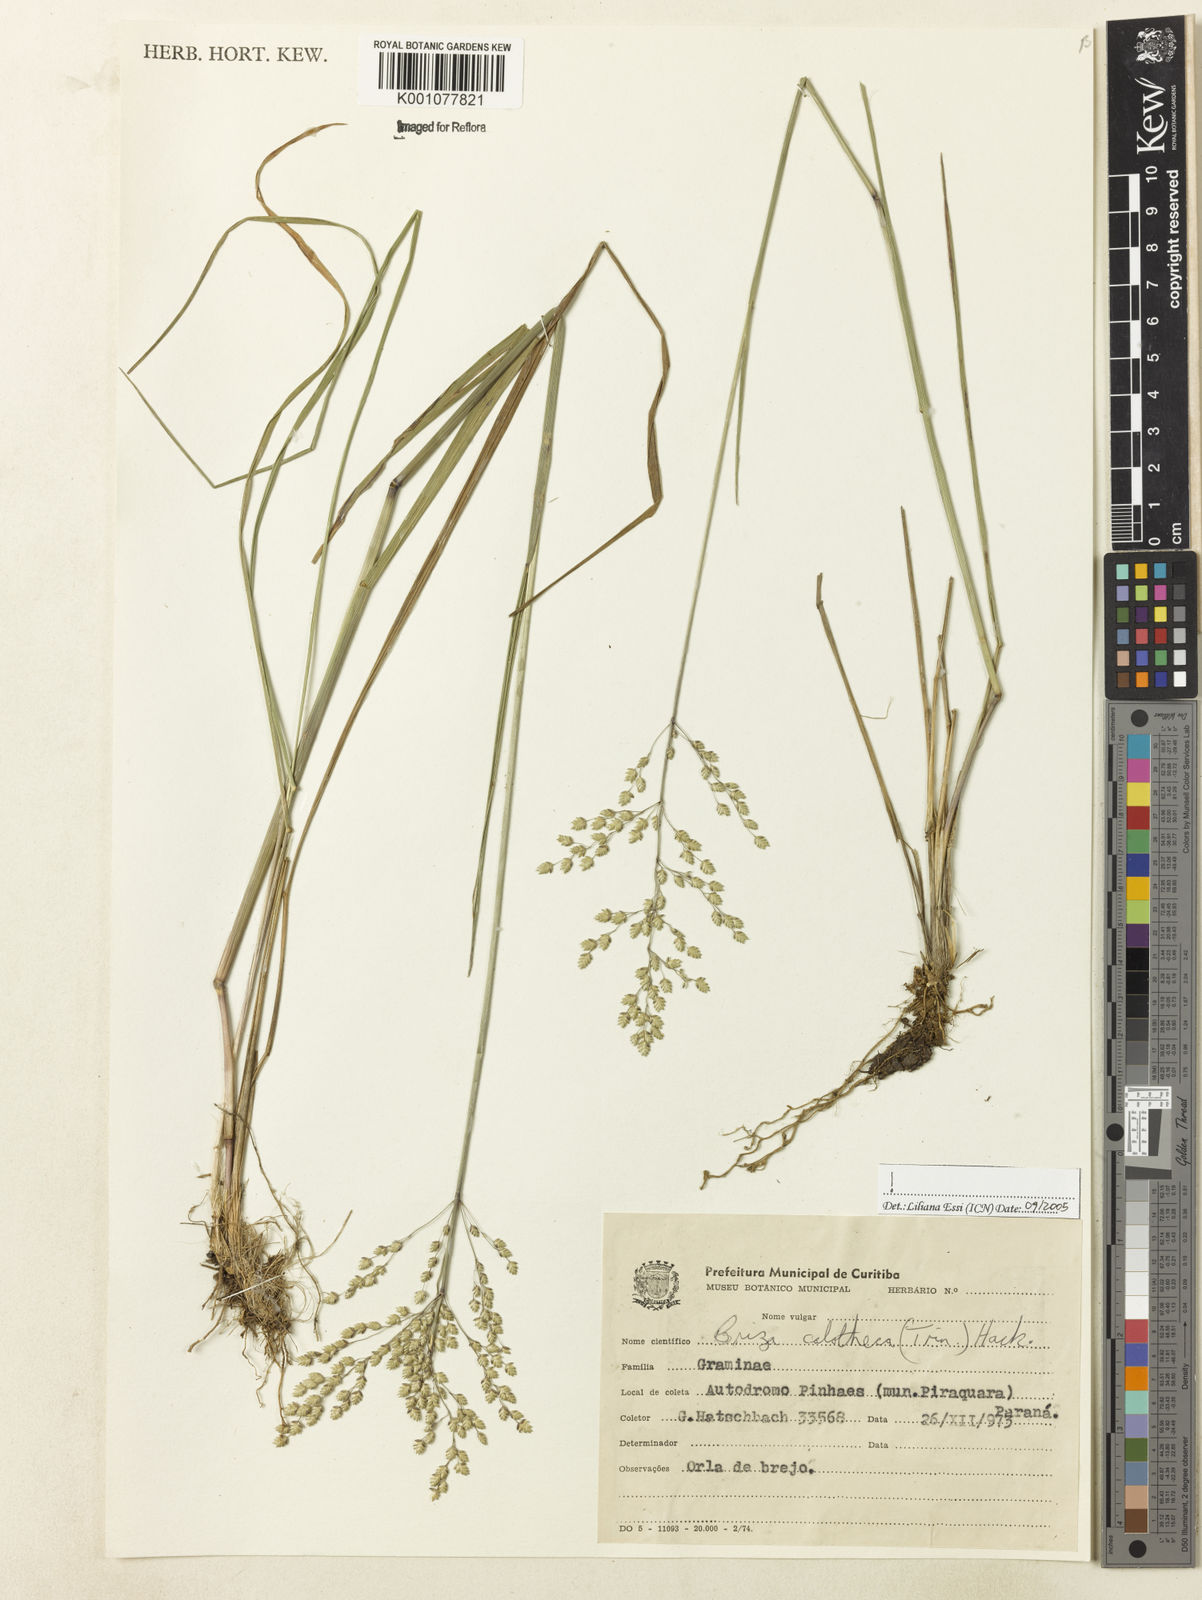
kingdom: Plantae
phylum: Tracheophyta
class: Liliopsida
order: Poales
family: Poaceae
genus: Poidium
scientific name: Poidium calotheca
